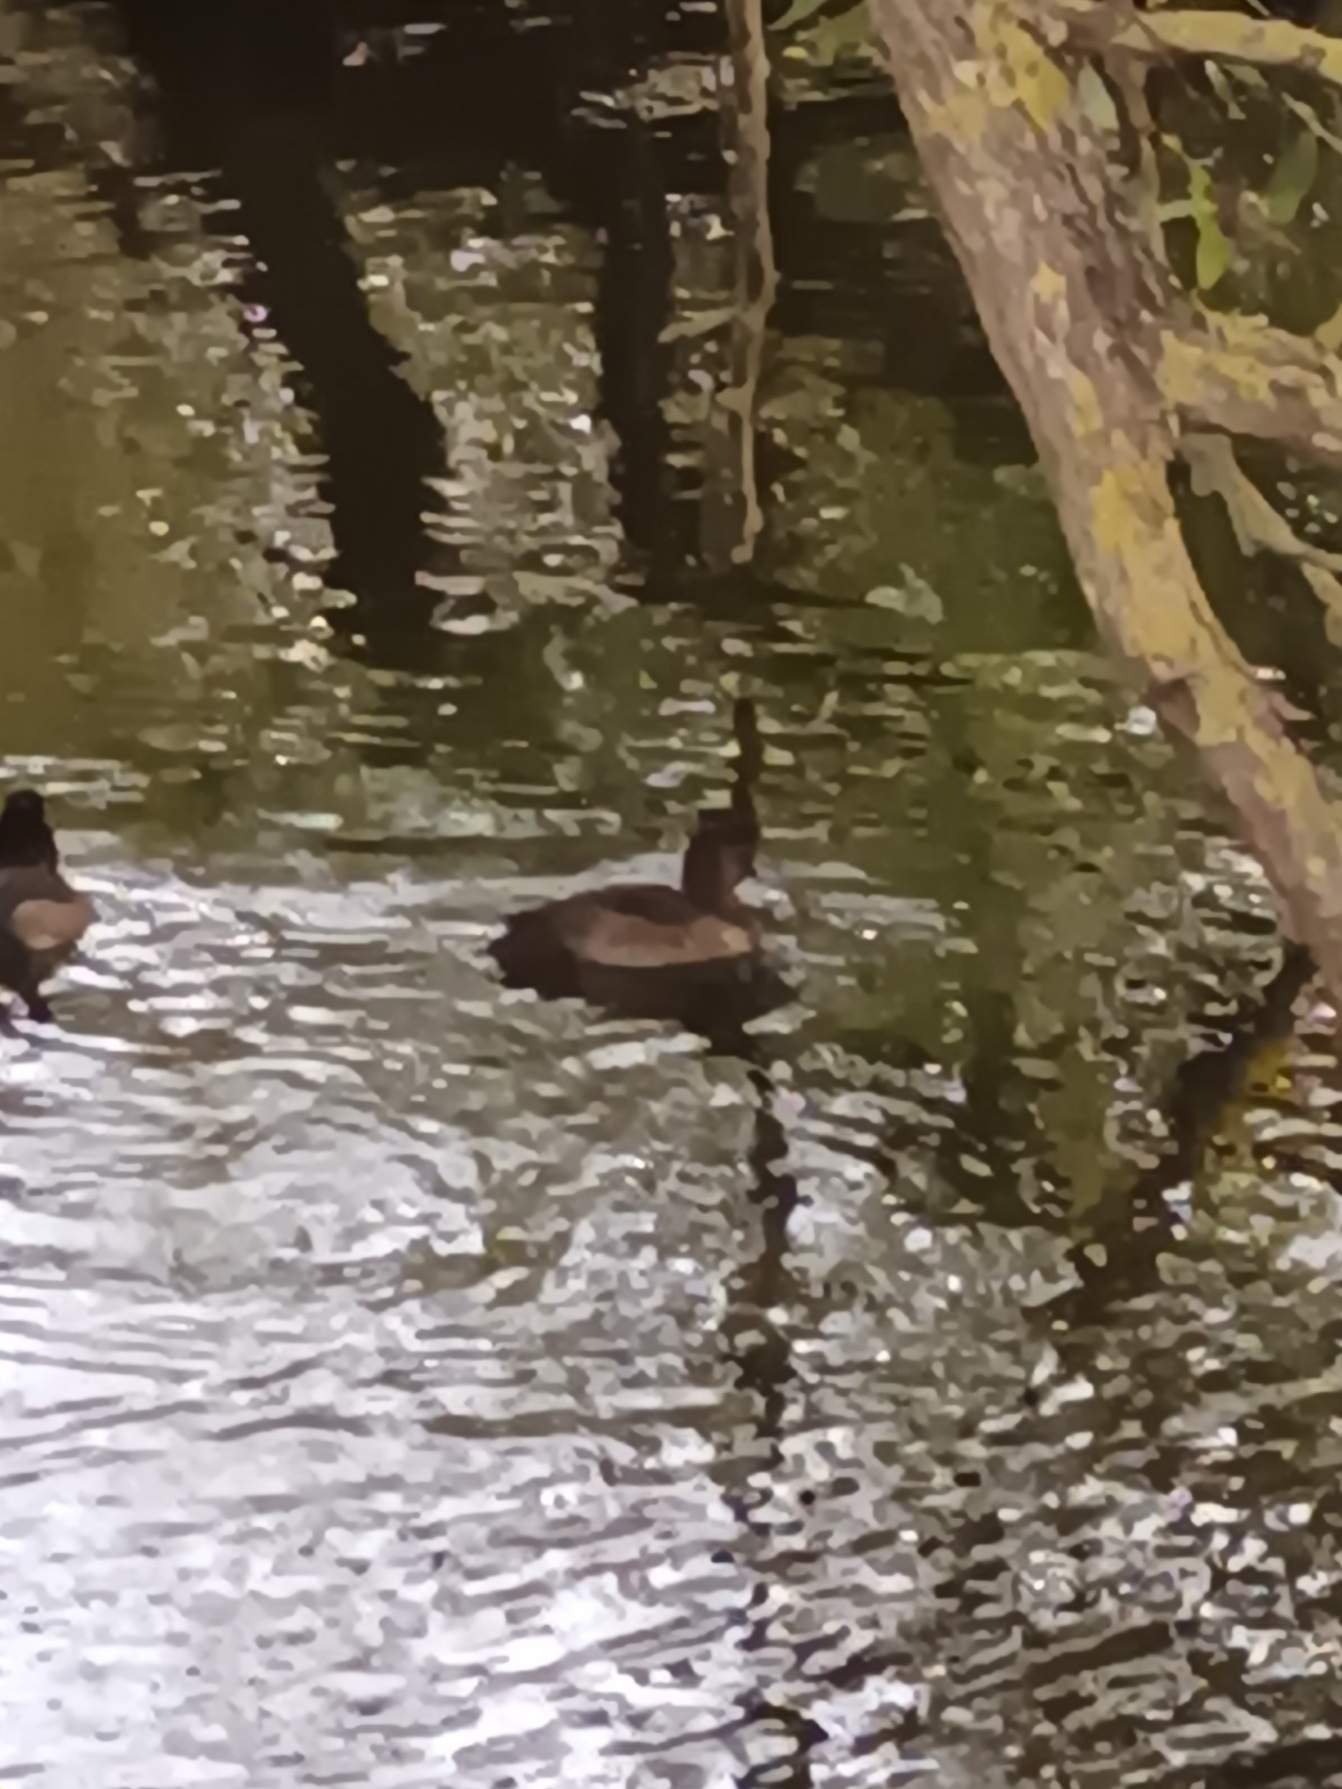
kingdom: Animalia
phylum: Chordata
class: Aves
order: Anseriformes
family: Anatidae
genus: Aythya
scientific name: Aythya fuligula
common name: Troldand
